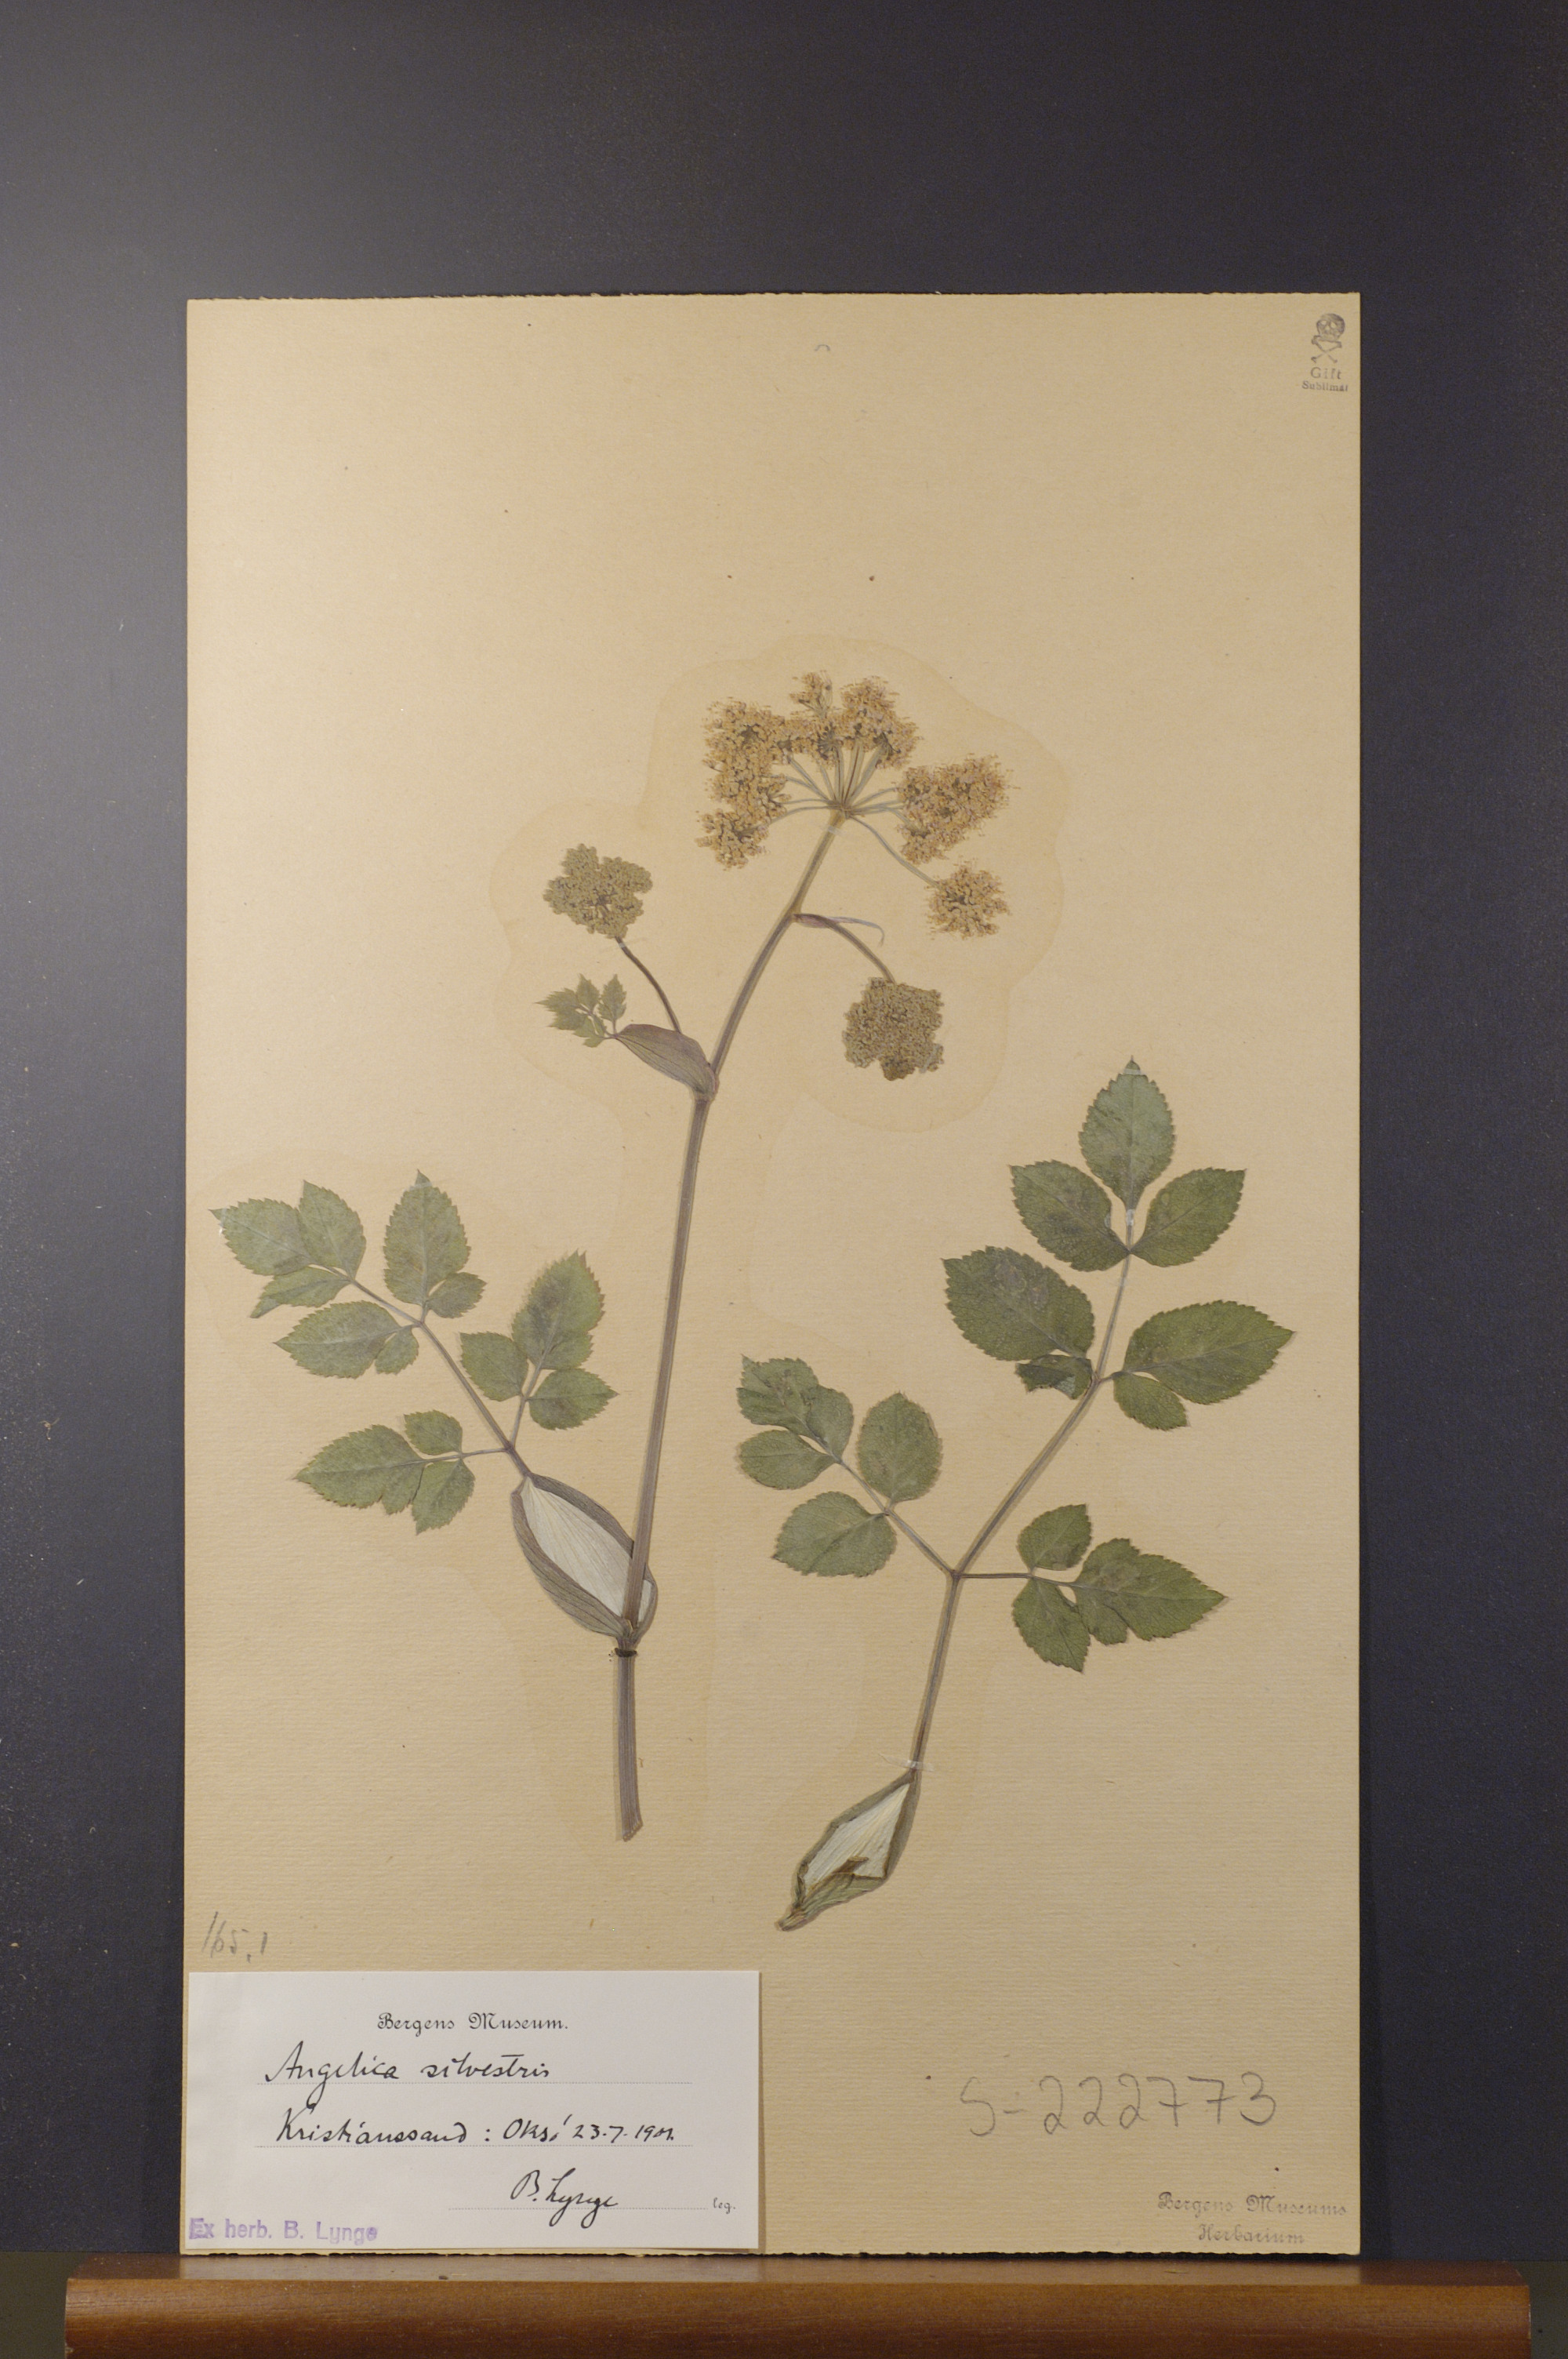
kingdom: Plantae
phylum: Tracheophyta
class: Magnoliopsida
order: Apiales
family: Apiaceae
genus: Angelica
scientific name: Angelica sylvestris
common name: Wild angelica
